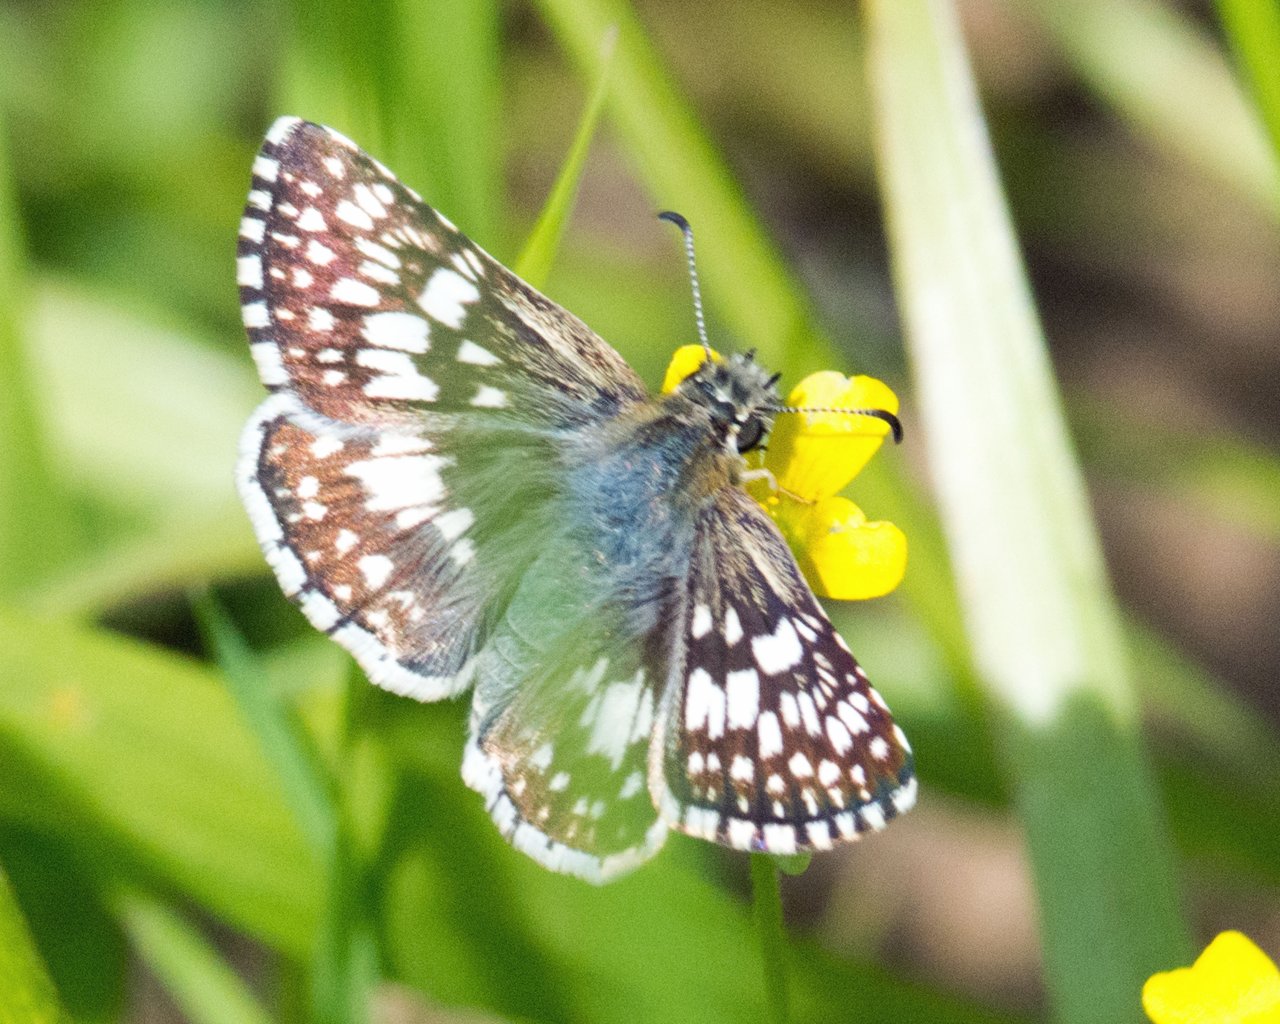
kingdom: Animalia
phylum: Arthropoda
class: Insecta
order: Lepidoptera
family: Hesperiidae
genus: Pyrgus
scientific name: Pyrgus communis
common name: White Checkered-Skipper
